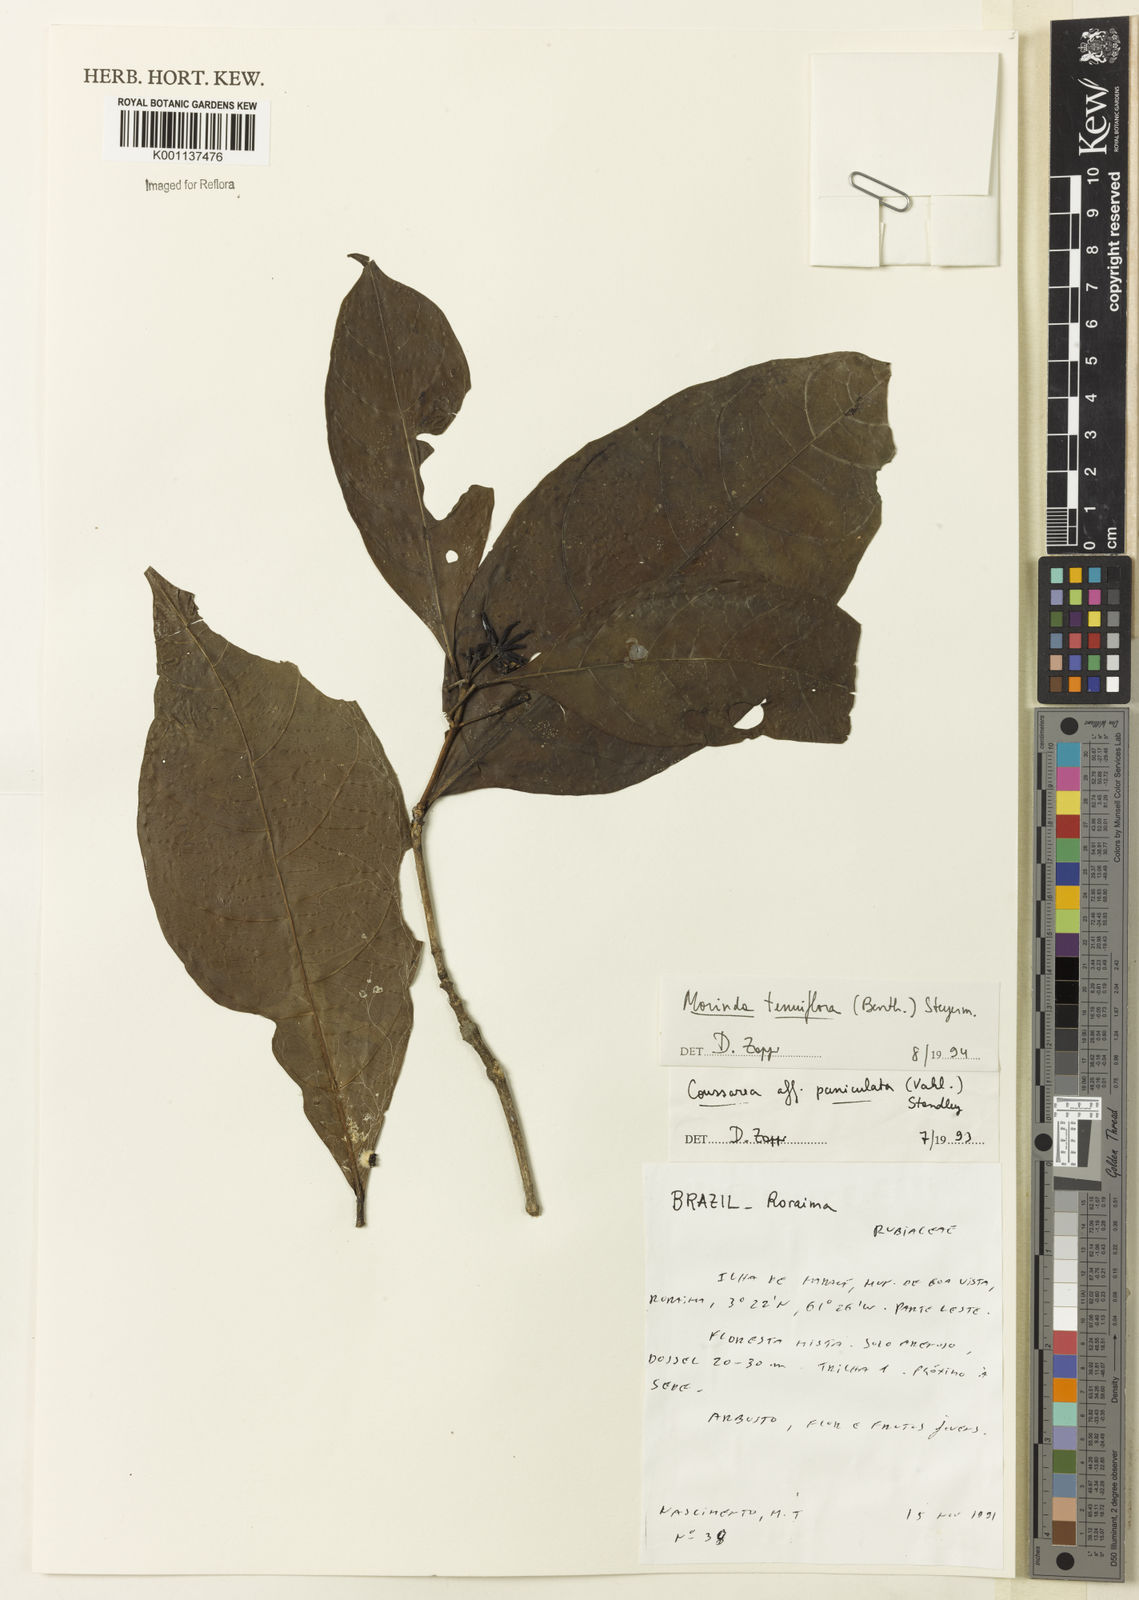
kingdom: Plantae
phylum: Tracheophyta
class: Magnoliopsida
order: Gentianales
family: Rubiaceae
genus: Appunia
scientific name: Appunia tenuiflora
